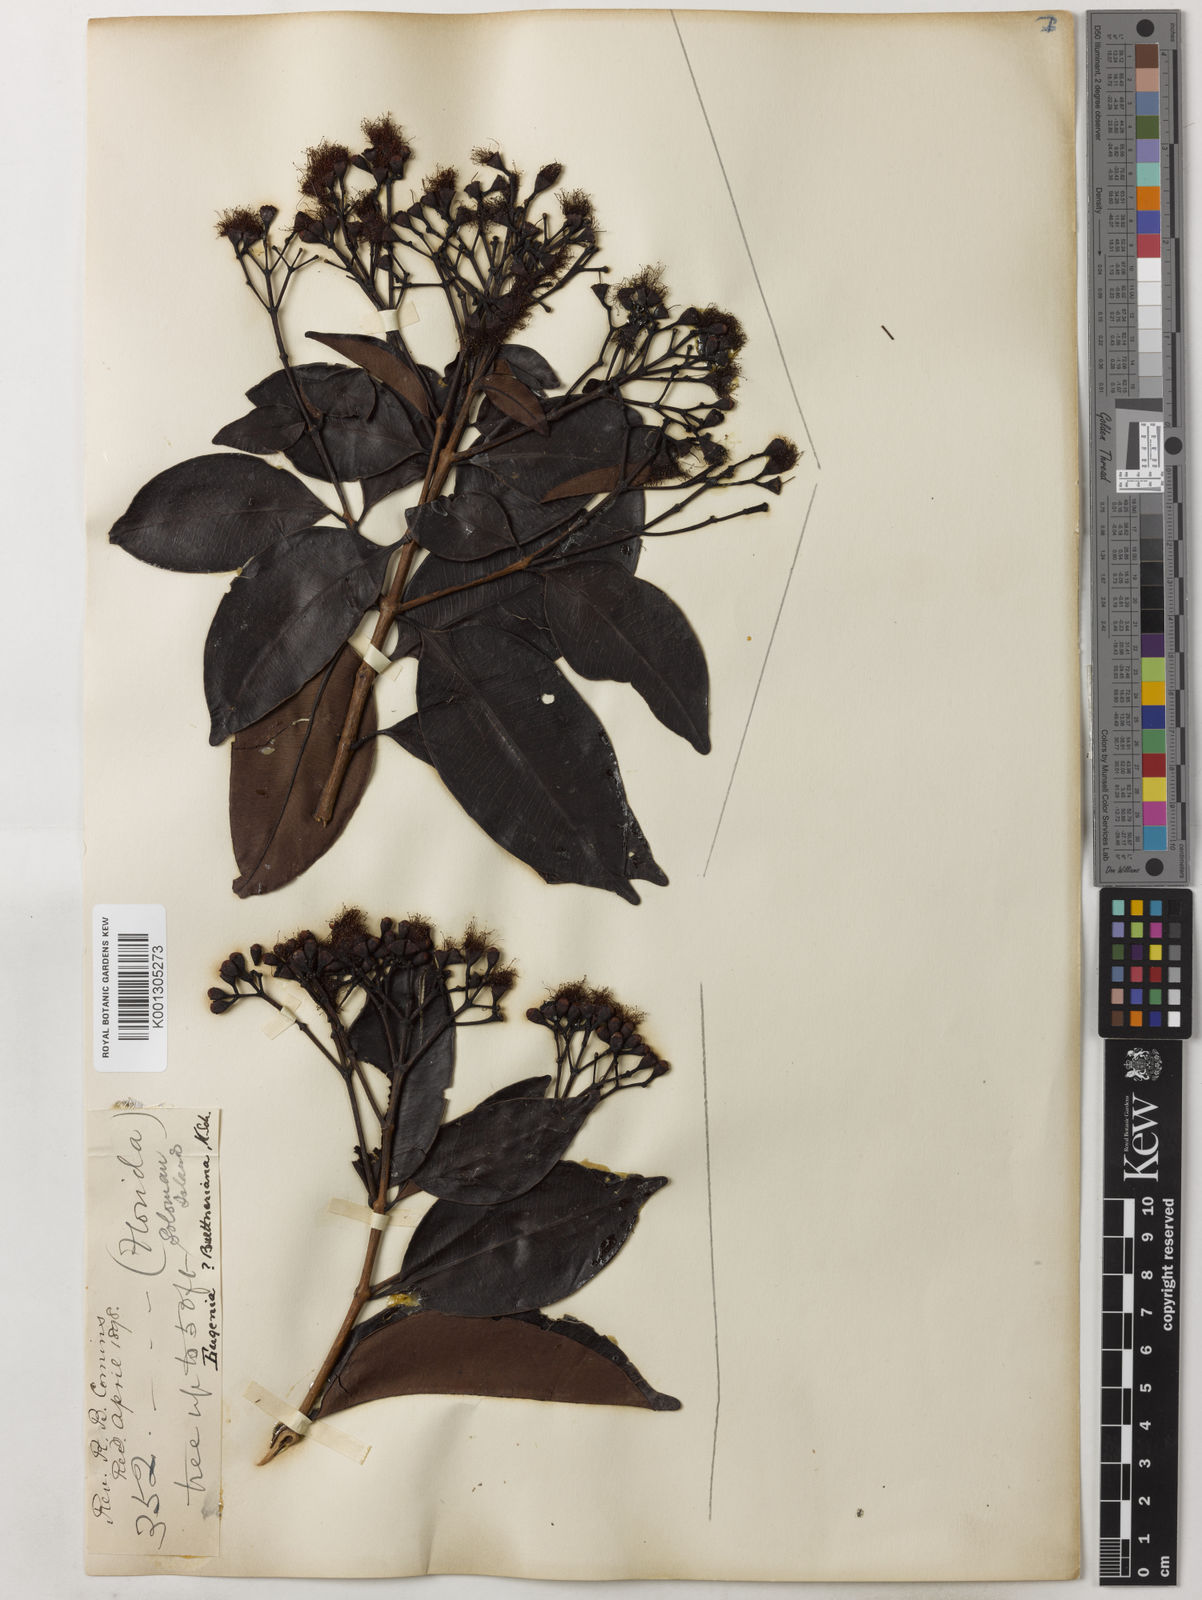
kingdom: Plantae
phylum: Tracheophyta
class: Magnoliopsida
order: Myrtales
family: Myrtaceae
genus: Syzygium
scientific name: Syzygium buettnerianum
